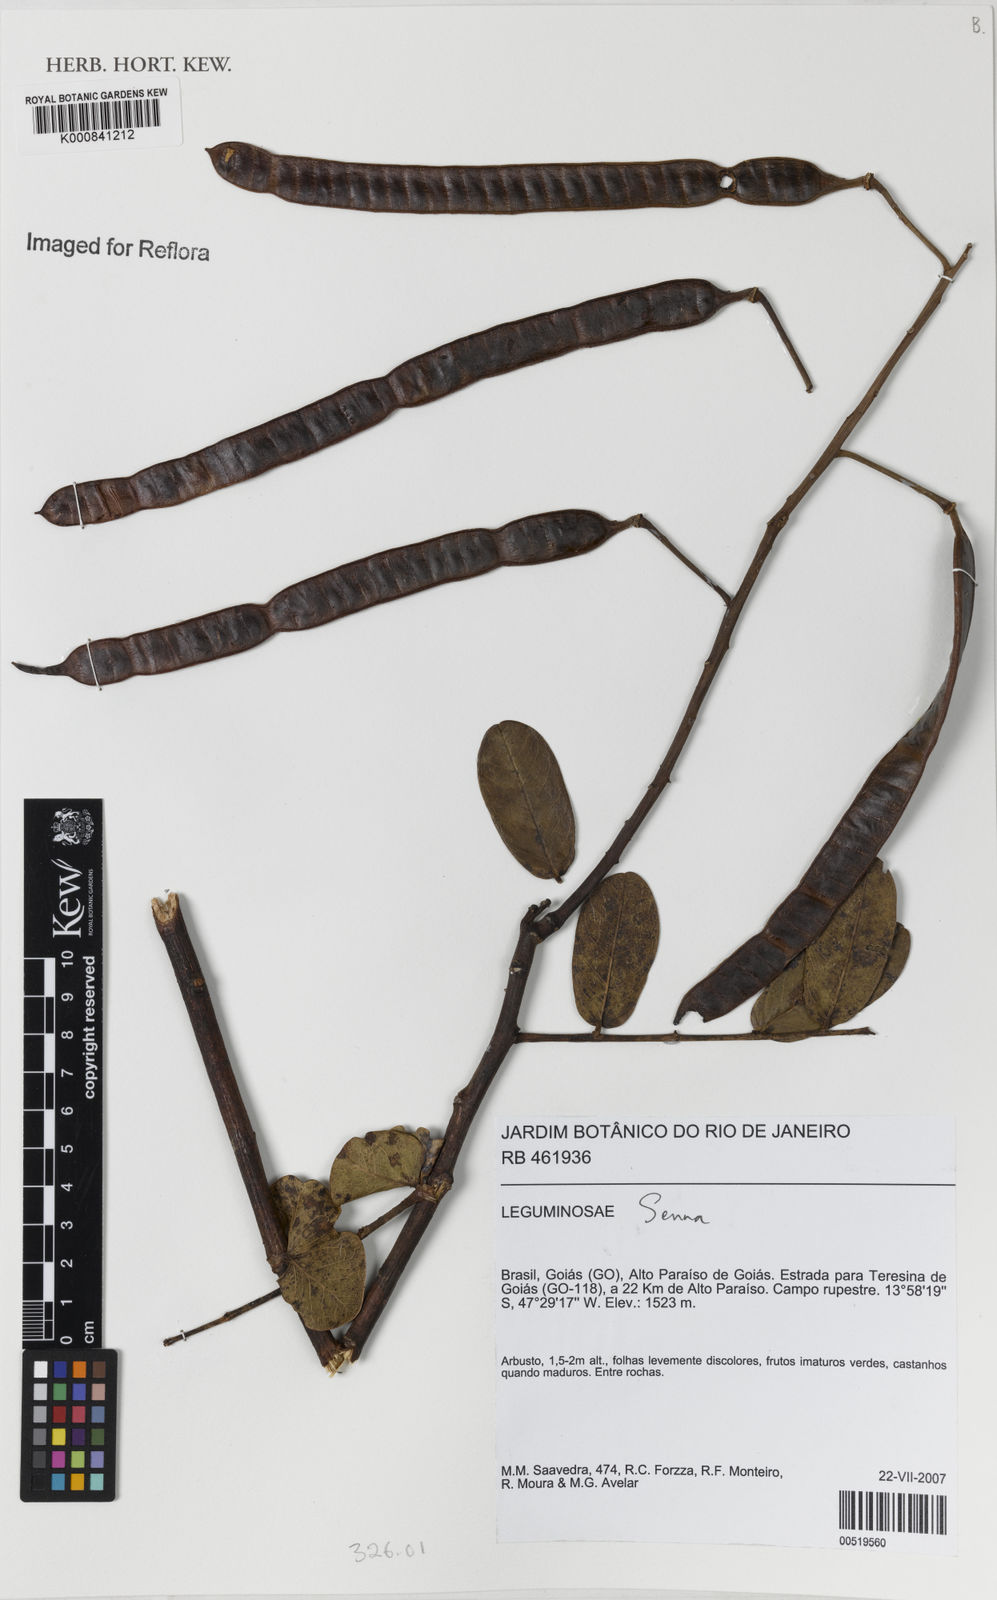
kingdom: Plantae
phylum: Tracheophyta
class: Magnoliopsida
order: Fabales
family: Fabaceae
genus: Senna
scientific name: Senna corifolia
